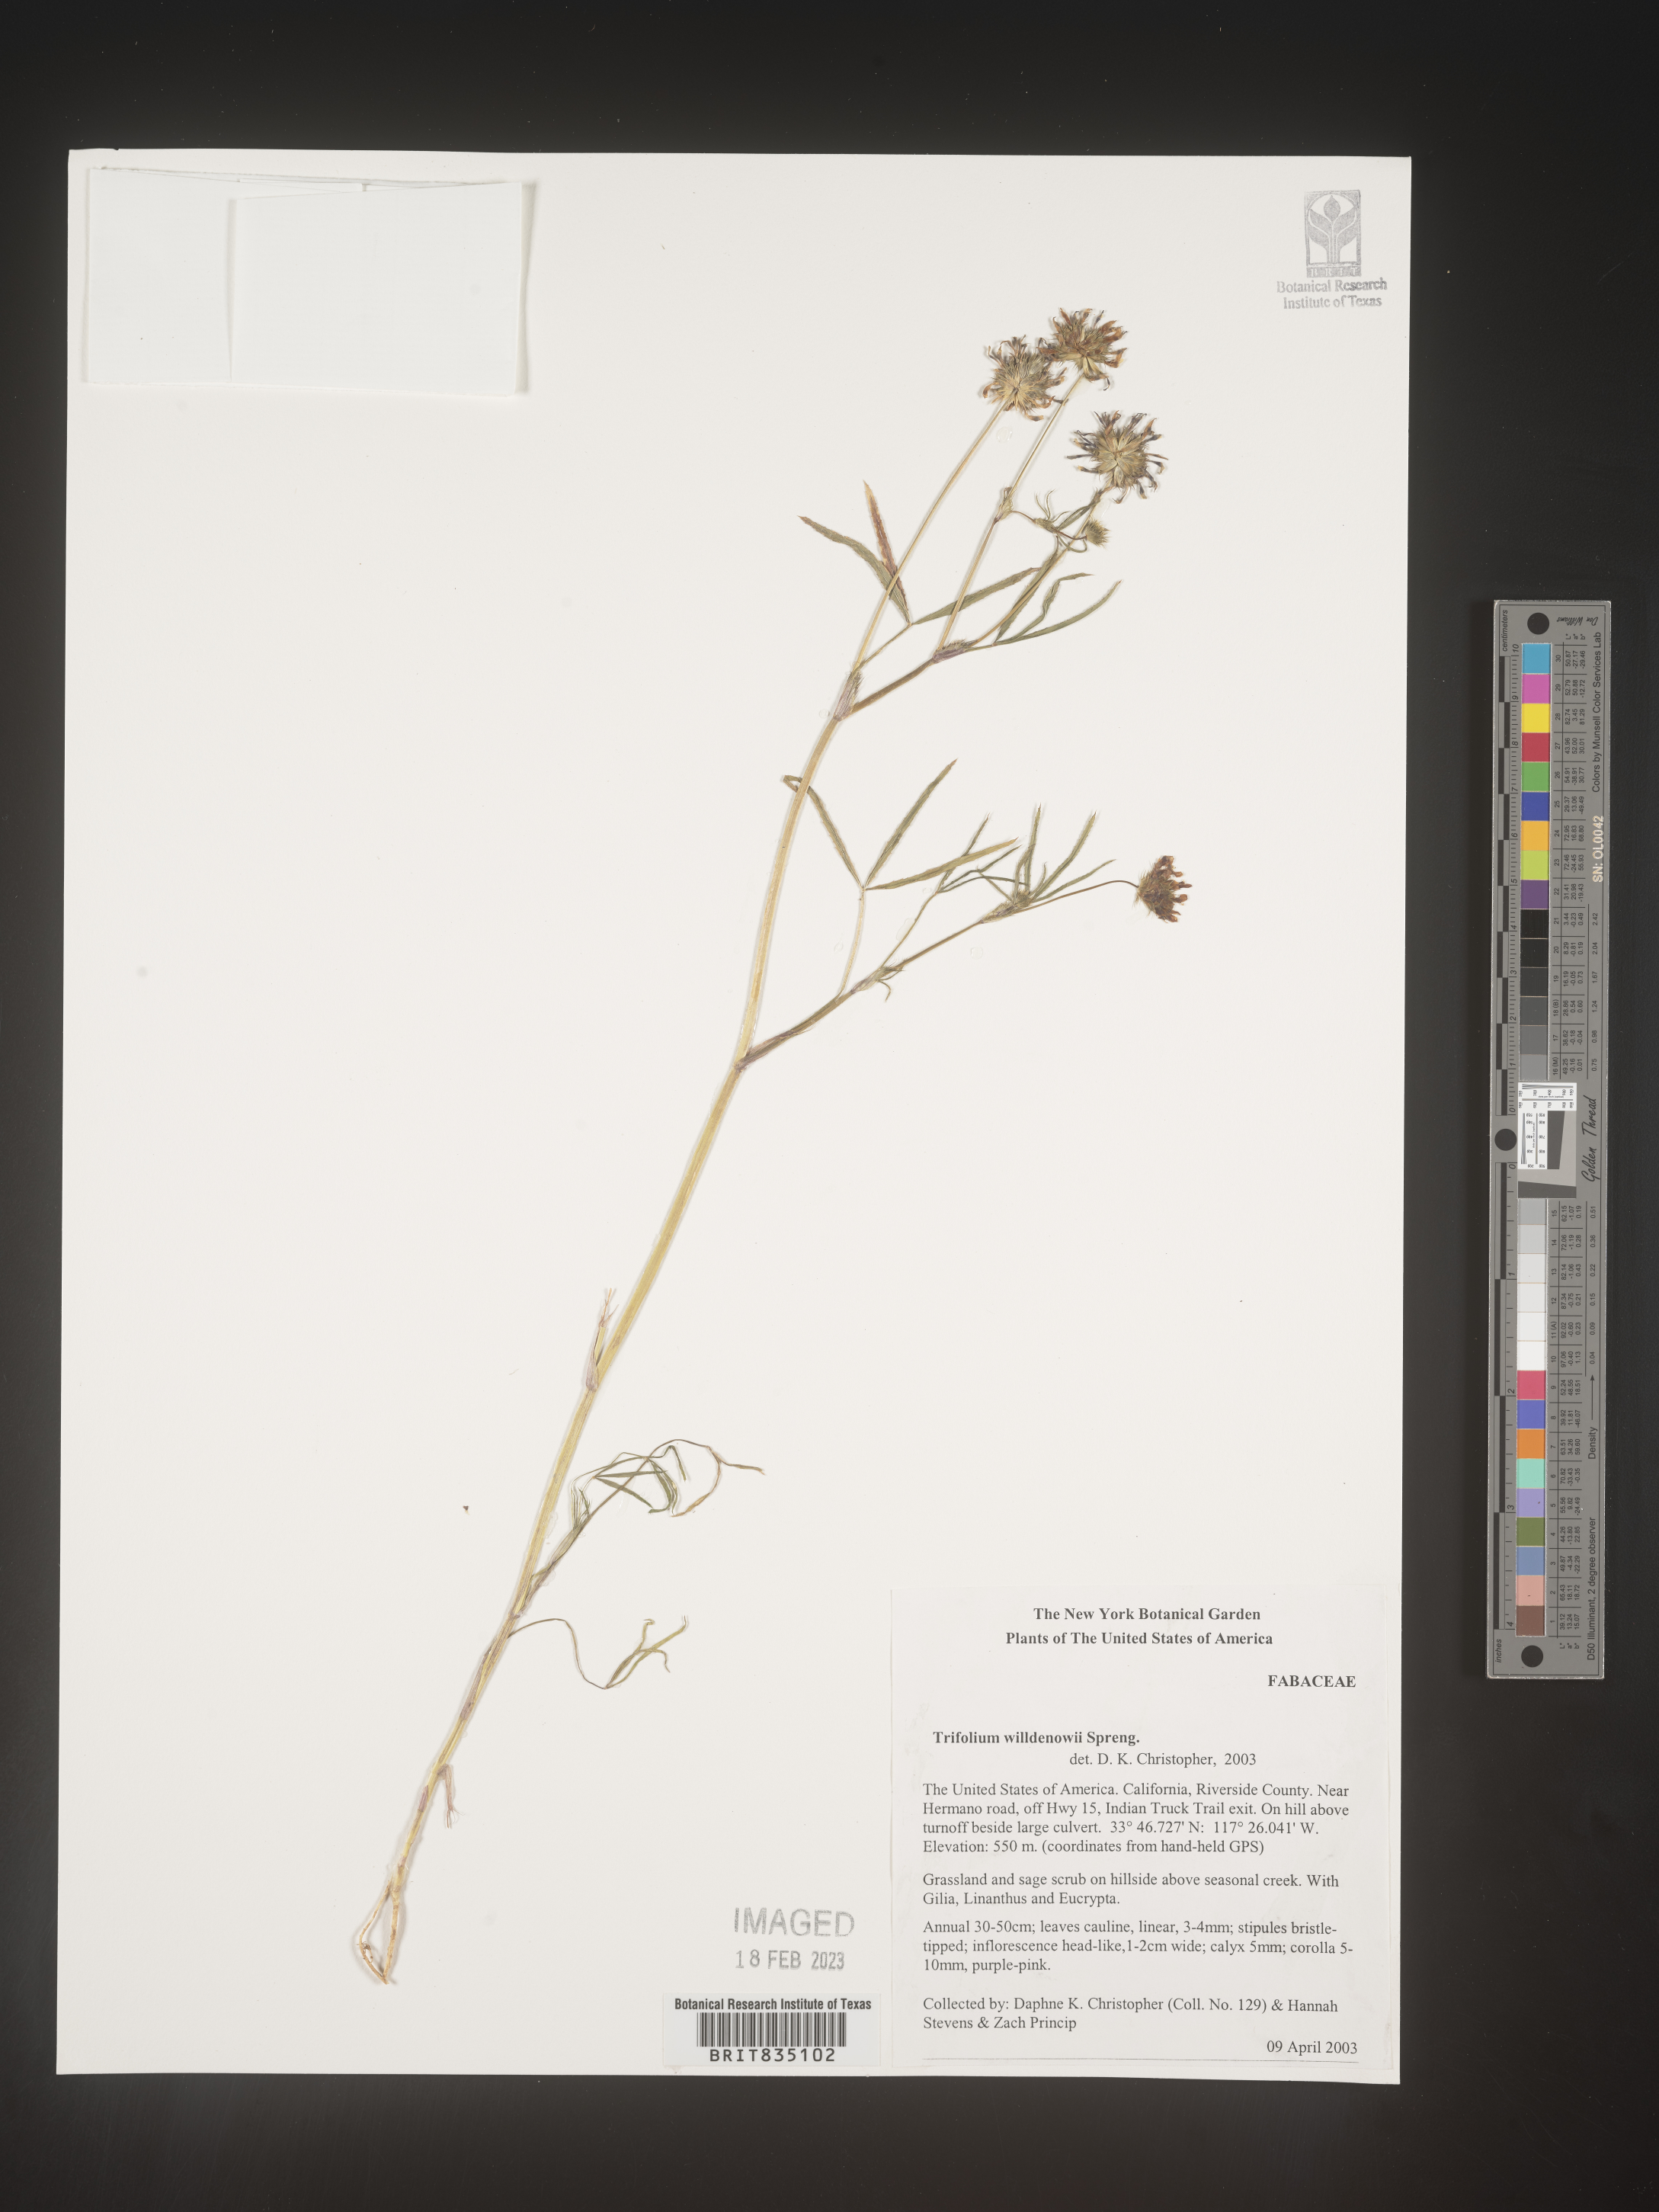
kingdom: Plantae
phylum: Tracheophyta
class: Magnoliopsida
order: Fabales
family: Fabaceae
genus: Trifolium
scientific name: Trifolium willdenovii
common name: Tomcat clover
